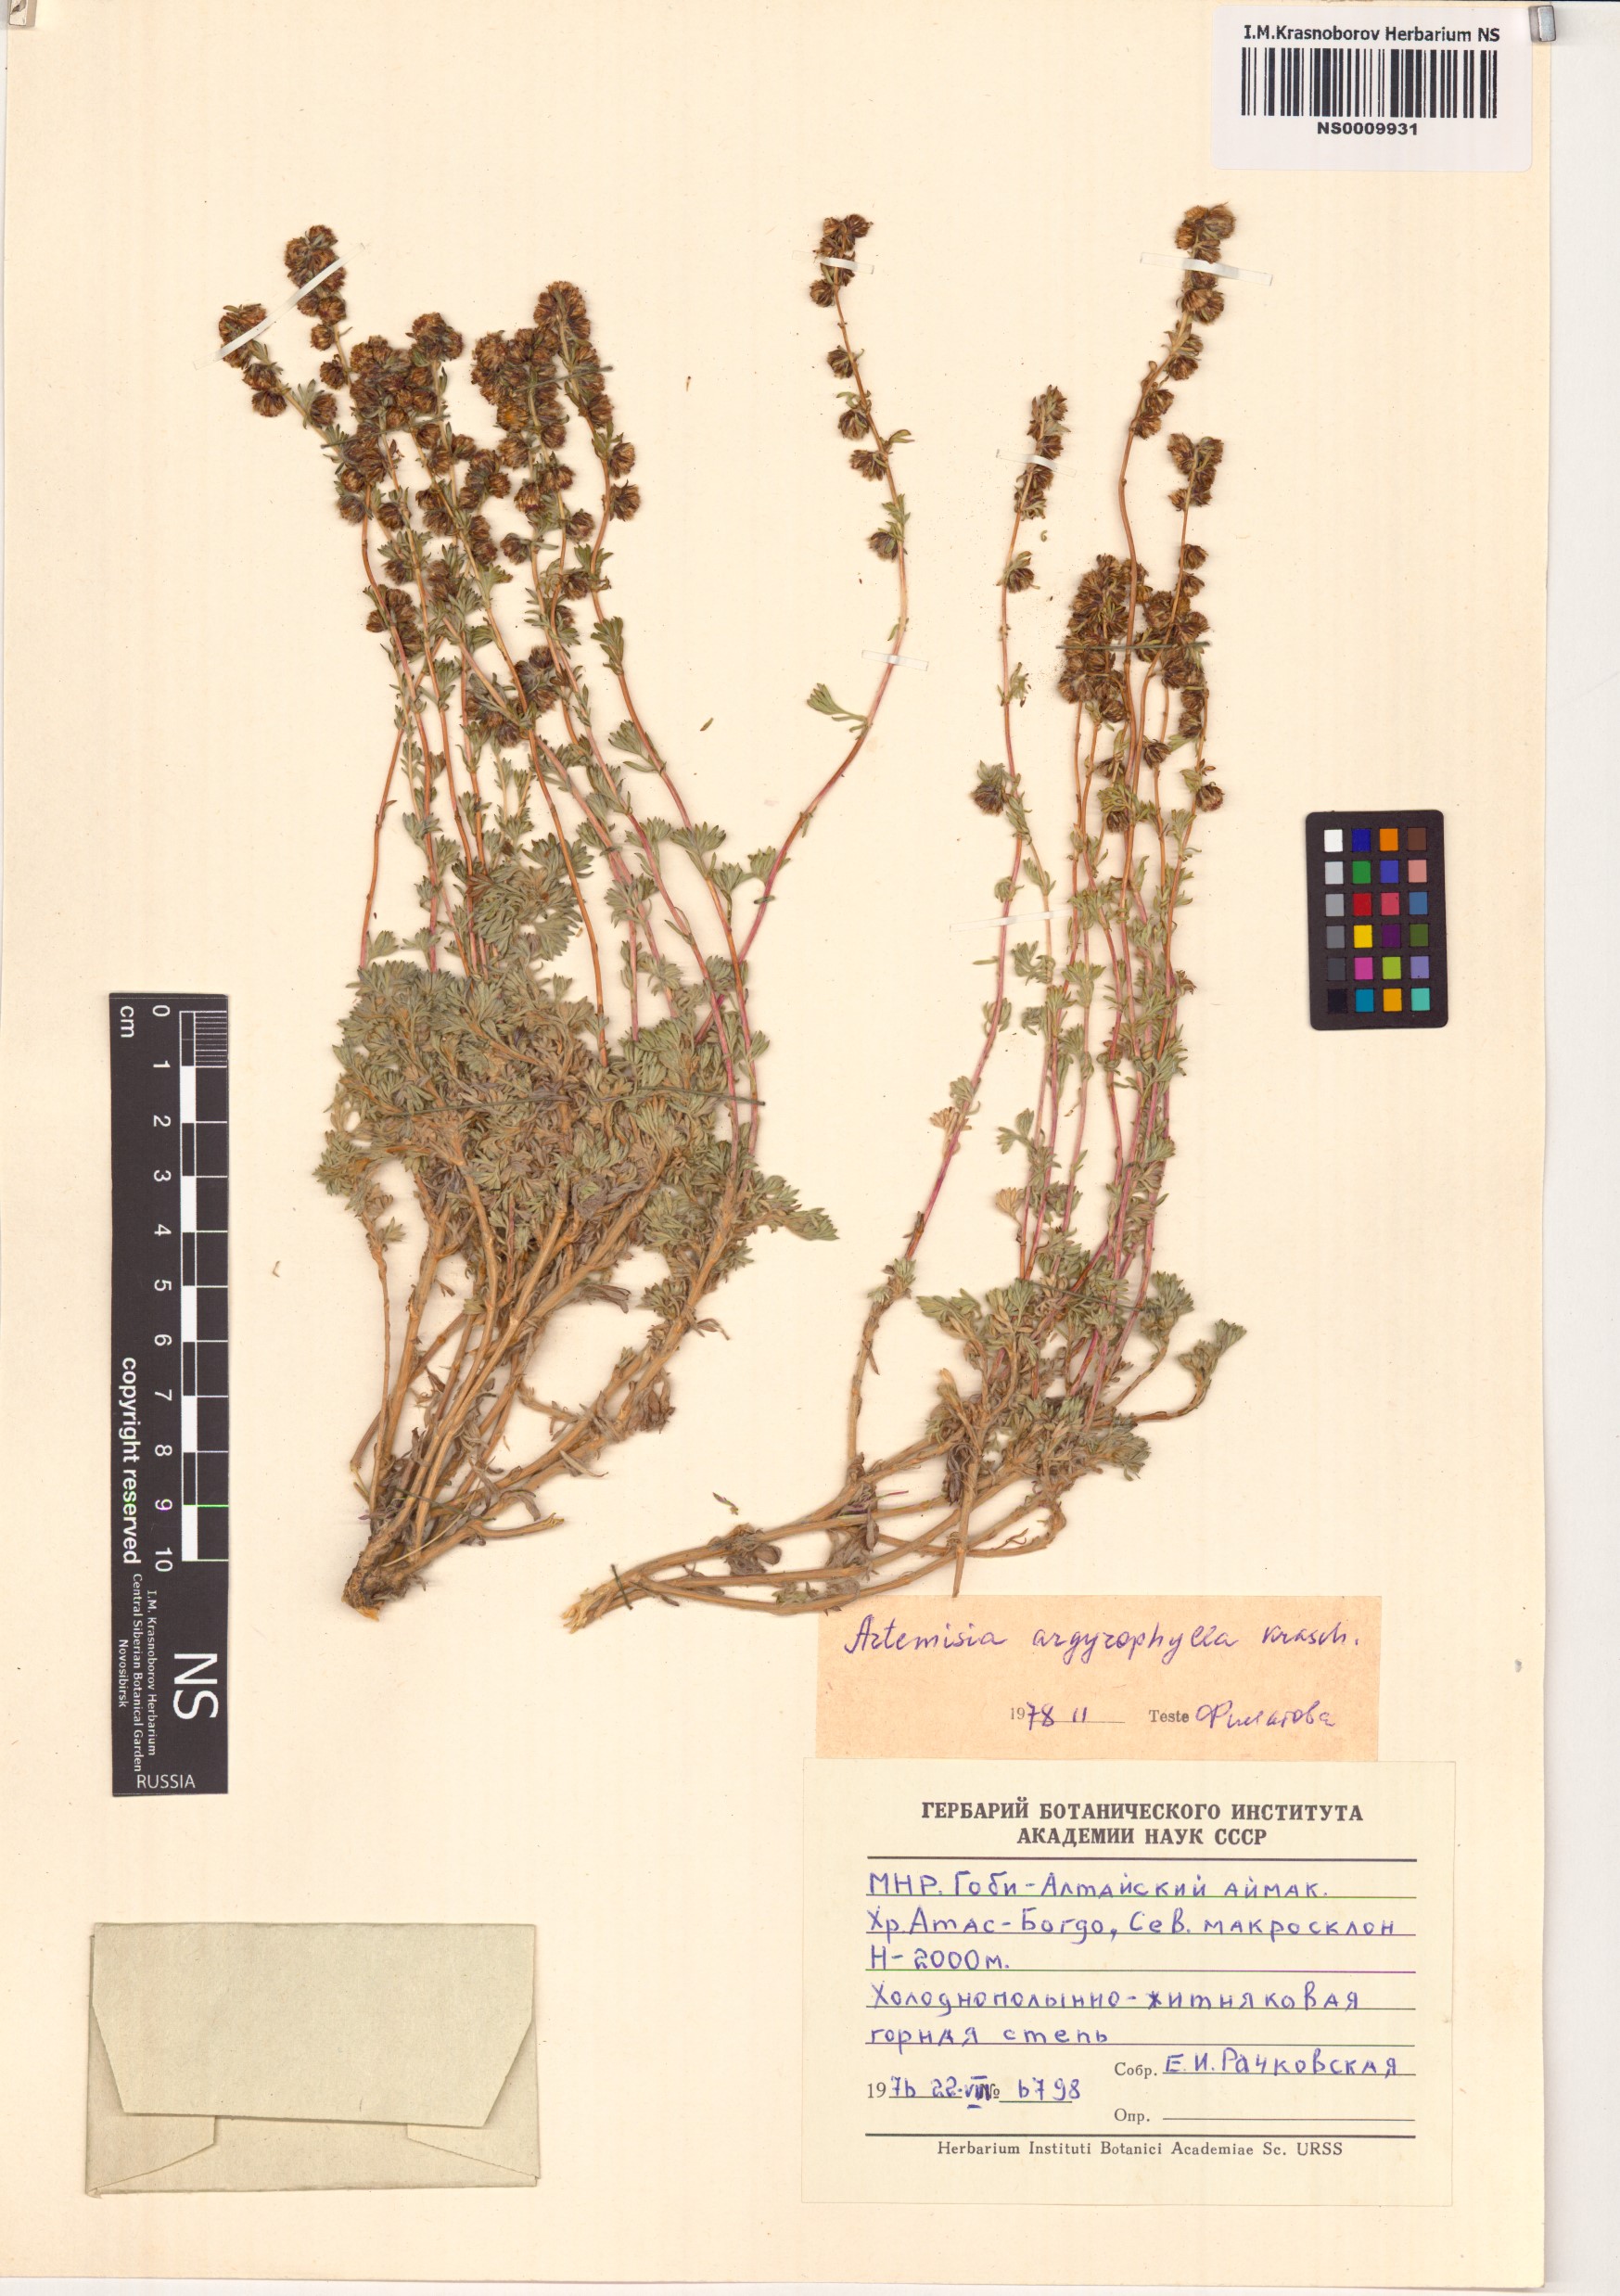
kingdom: Plantae
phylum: Tracheophyta
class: Magnoliopsida
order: Asterales
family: Asteraceae
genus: Artemisia
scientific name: Artemisia argyrophylla
